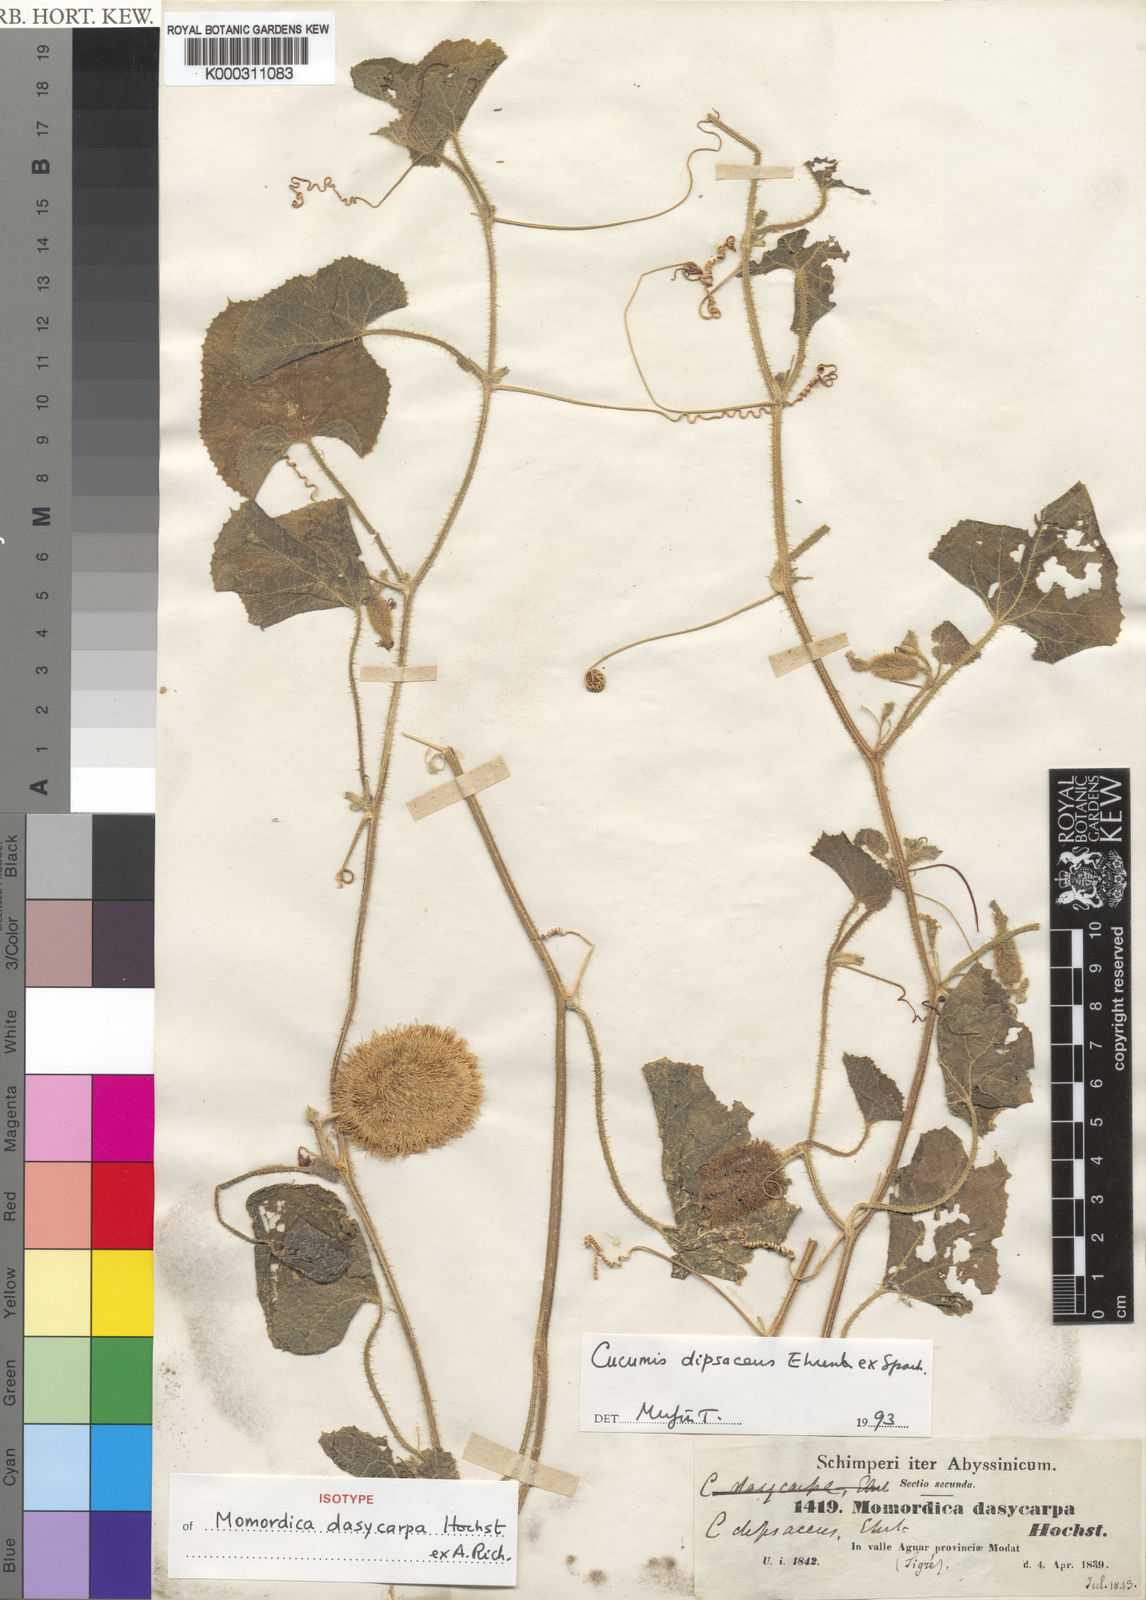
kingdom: Plantae
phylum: Tracheophyta
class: Magnoliopsida
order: Cucurbitales
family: Cucurbitaceae
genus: Cucumis
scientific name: Cucumis dipsaceus
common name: Hedgehog gourd
